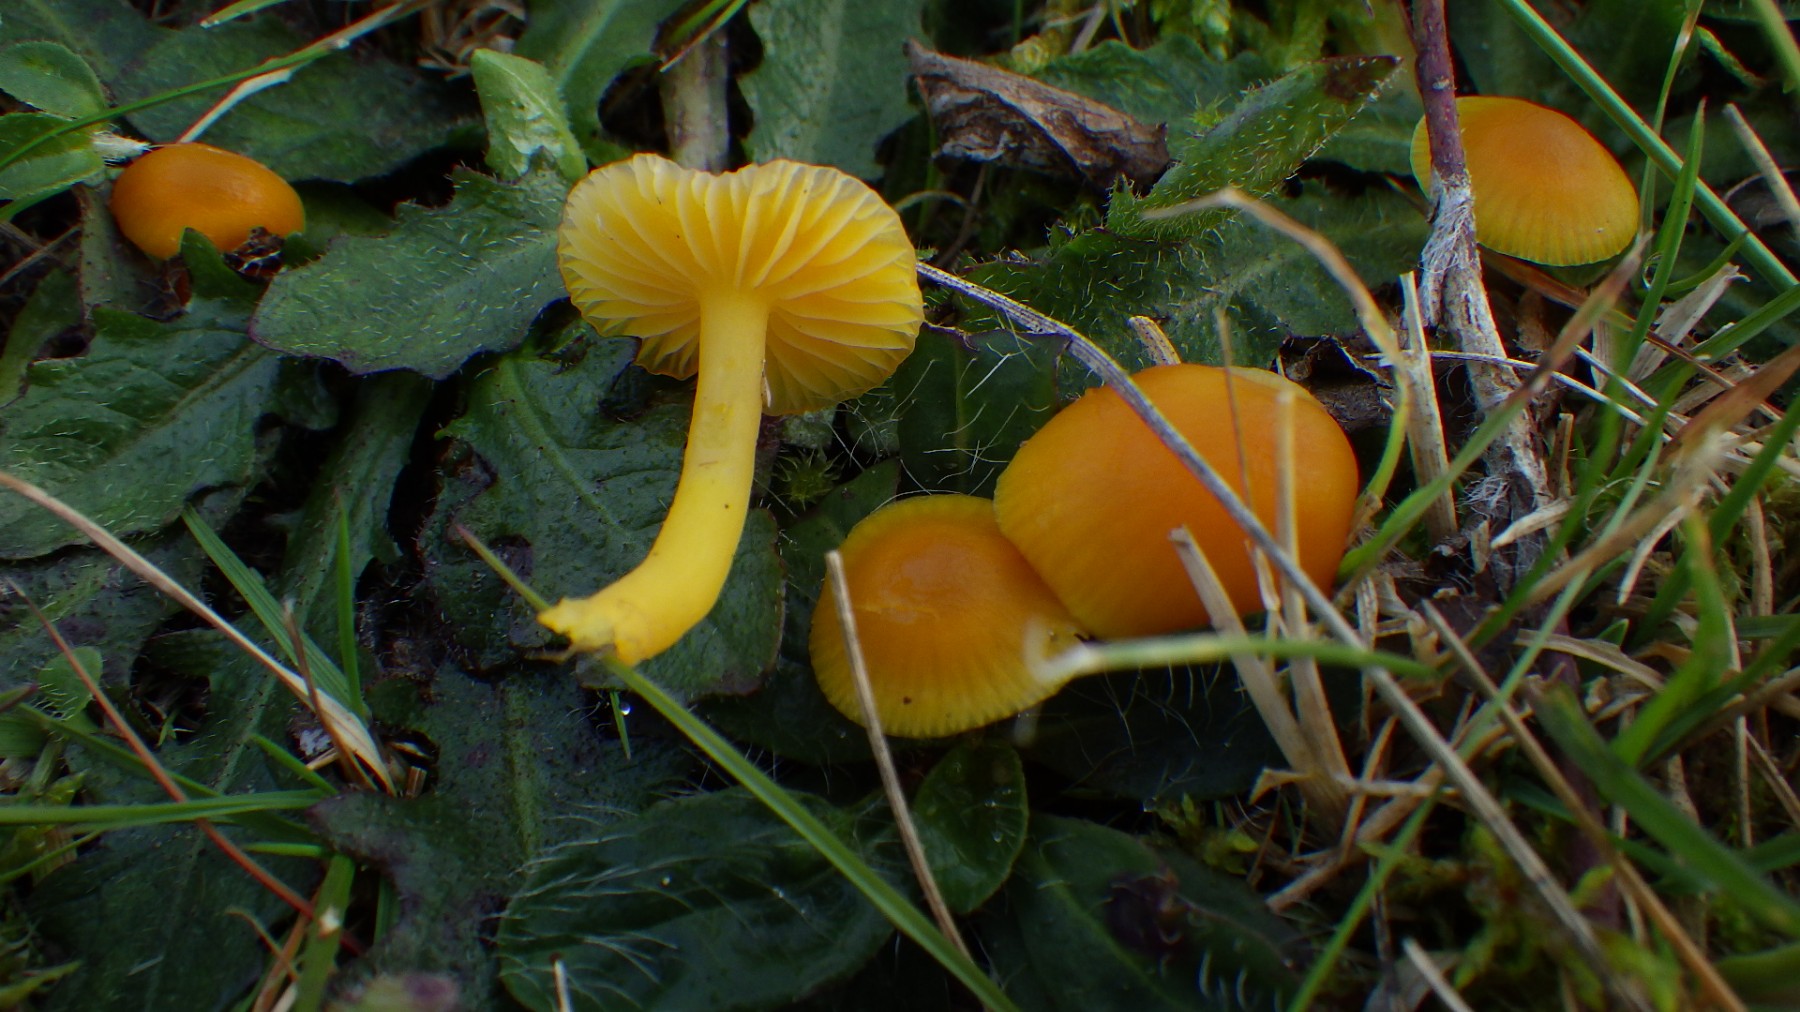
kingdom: Fungi
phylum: Basidiomycota
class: Agaricomycetes
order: Agaricales
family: Hygrophoraceae
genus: Hygrocybe
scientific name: Hygrocybe chlorophana
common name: gul vokshat
